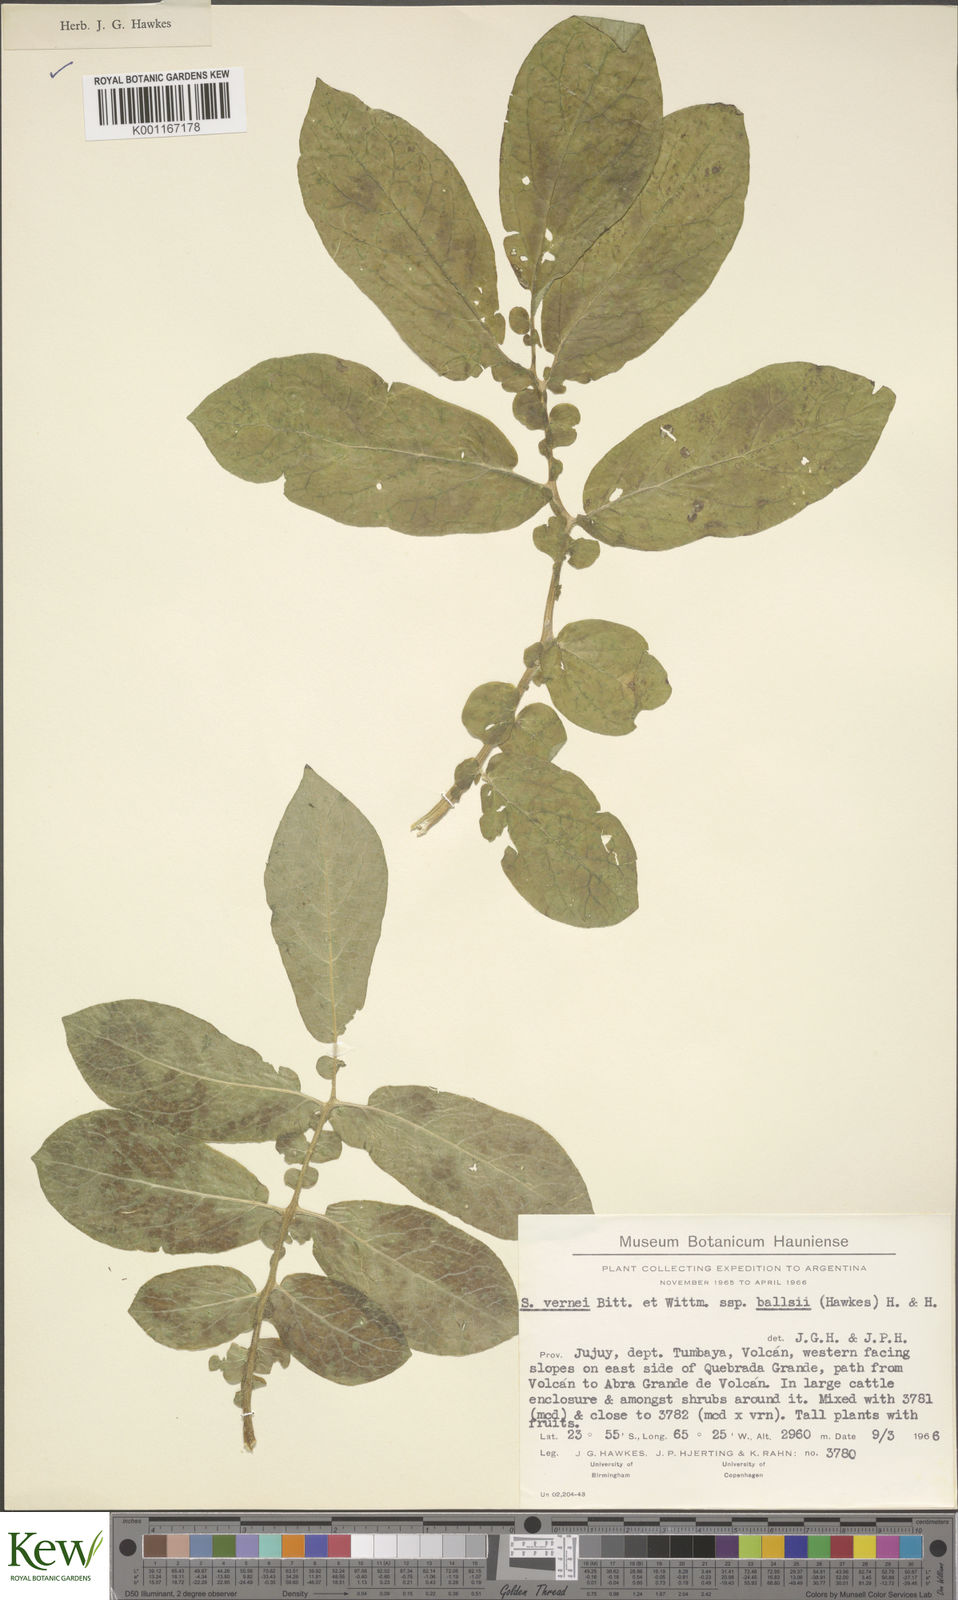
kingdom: Plantae
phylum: Tracheophyta
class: Magnoliopsida
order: Solanales
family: Solanaceae
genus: Solanum
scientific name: Solanum vernei
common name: Purple potato
